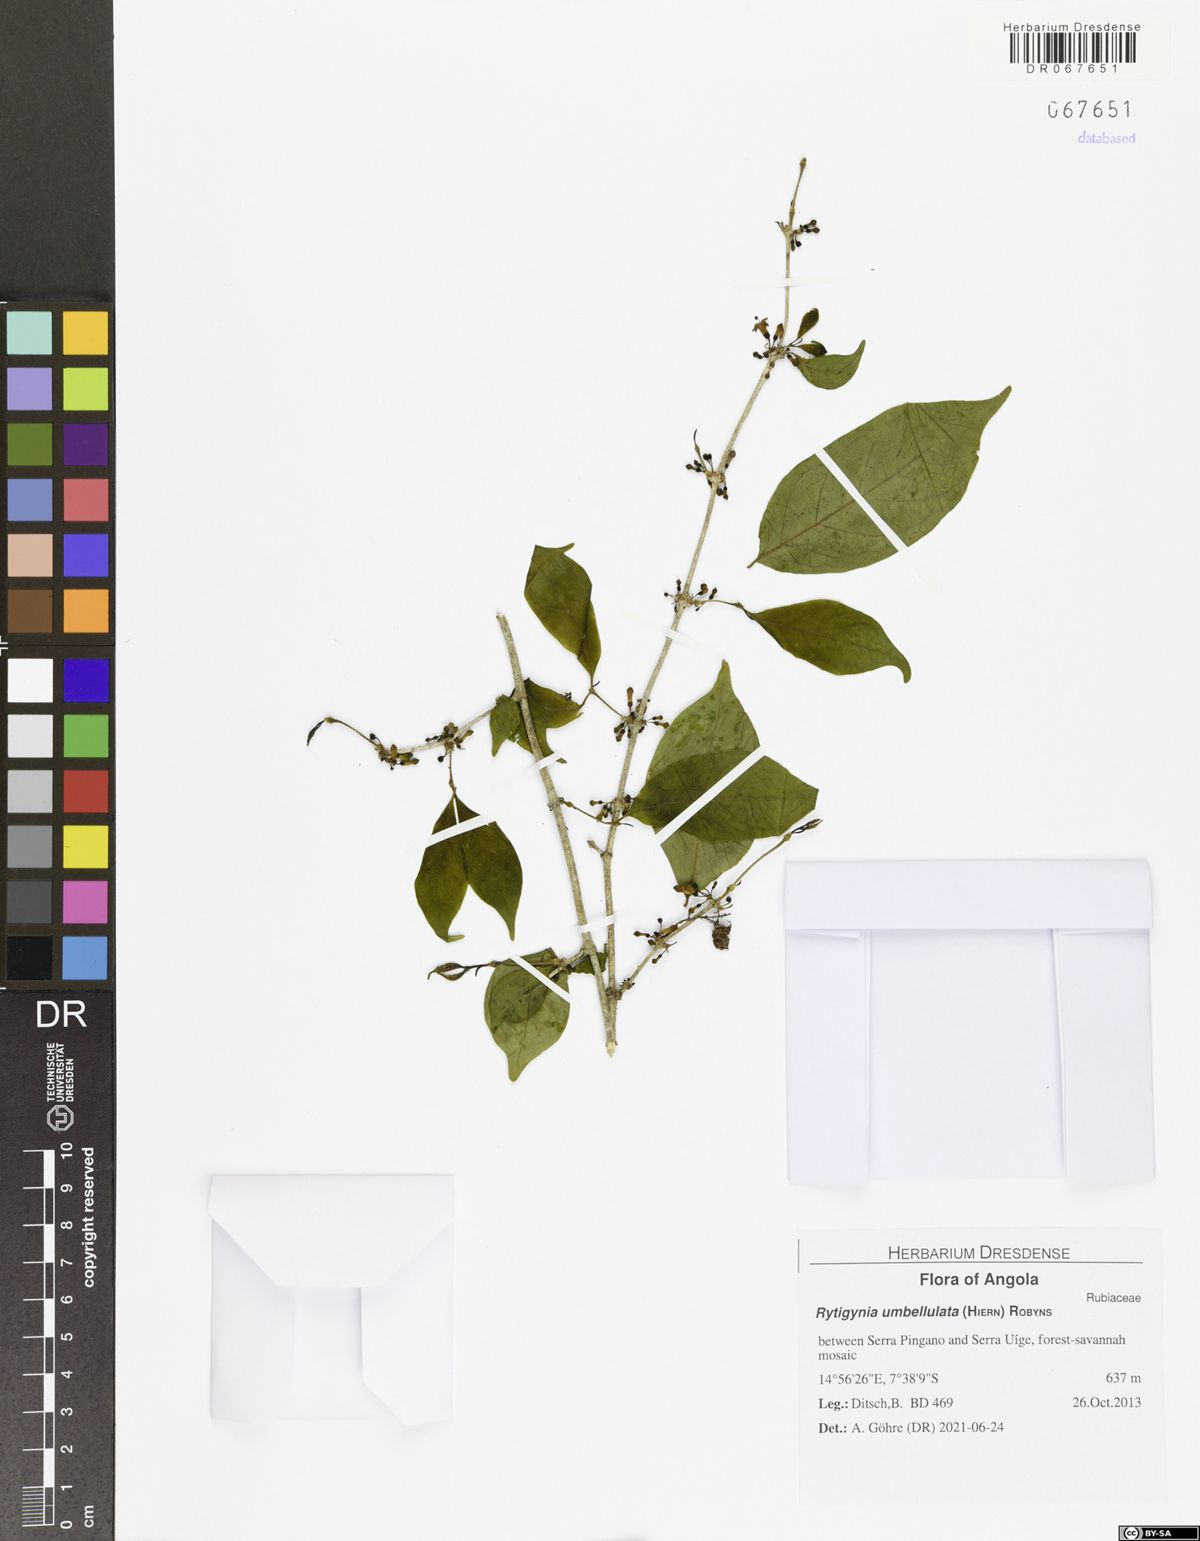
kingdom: Plantae
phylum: Tracheophyta
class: Magnoliopsida
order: Gentianales
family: Rubiaceae
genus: Rytigynia
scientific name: Rytigynia umbellulata
